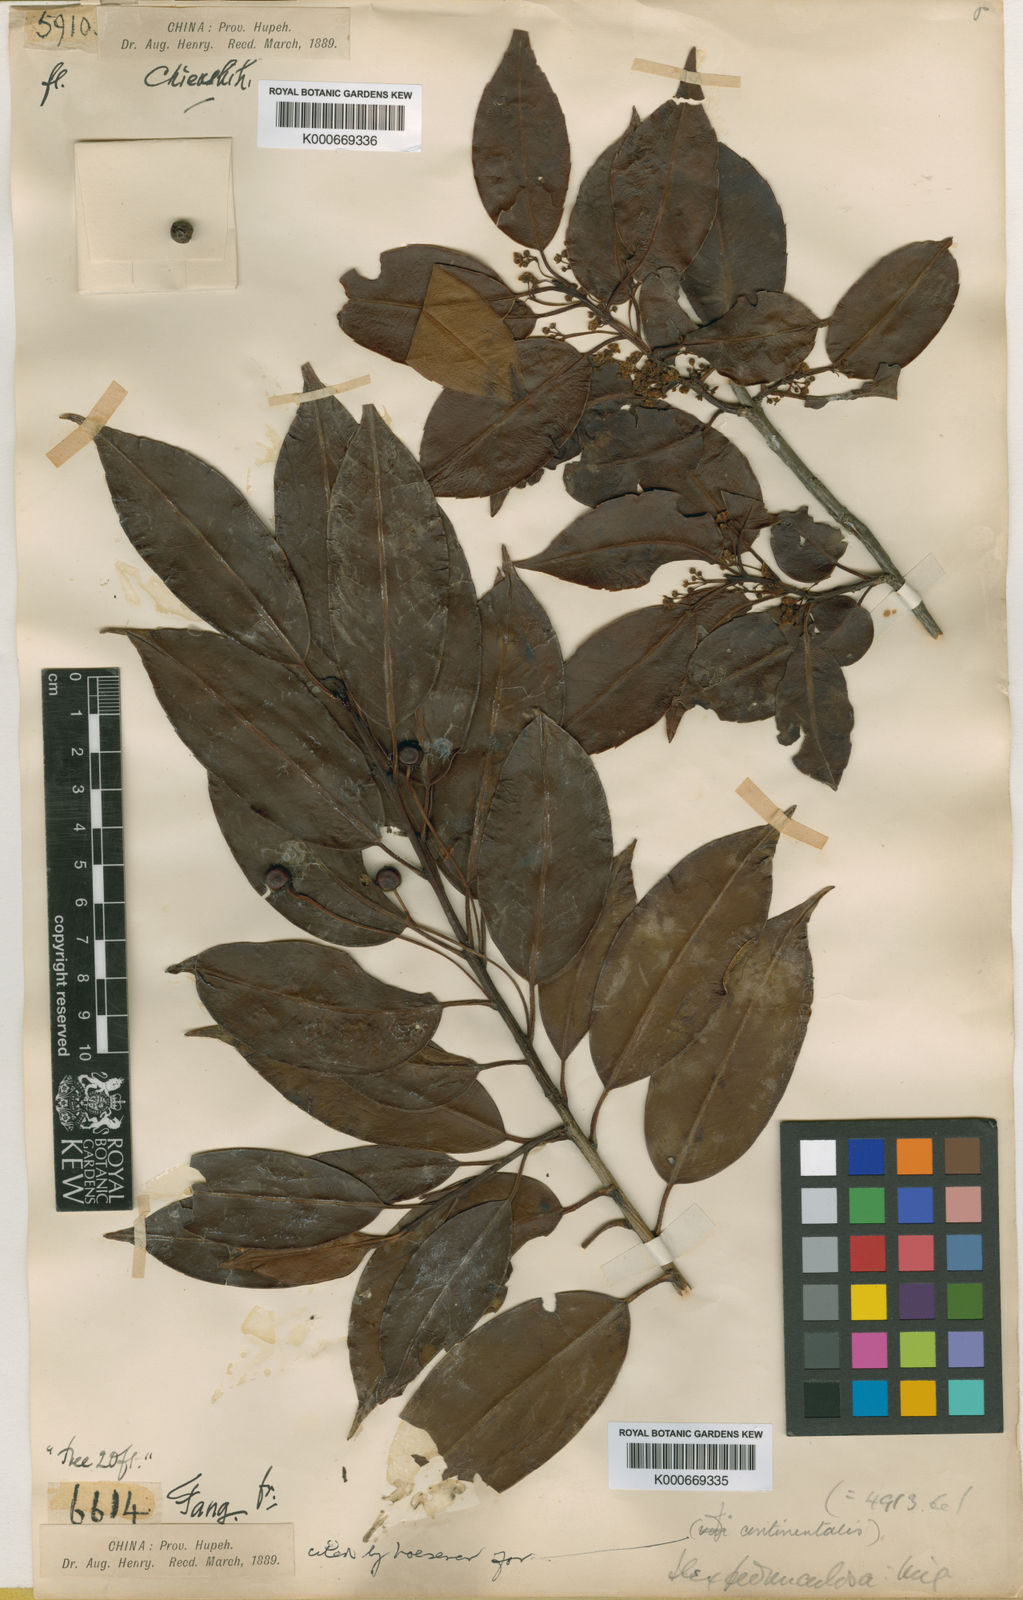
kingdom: Plantae
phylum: Tracheophyta
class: Magnoliopsida
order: Aquifoliales
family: Aquifoliaceae
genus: Ilex
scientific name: Ilex pedunculosa
